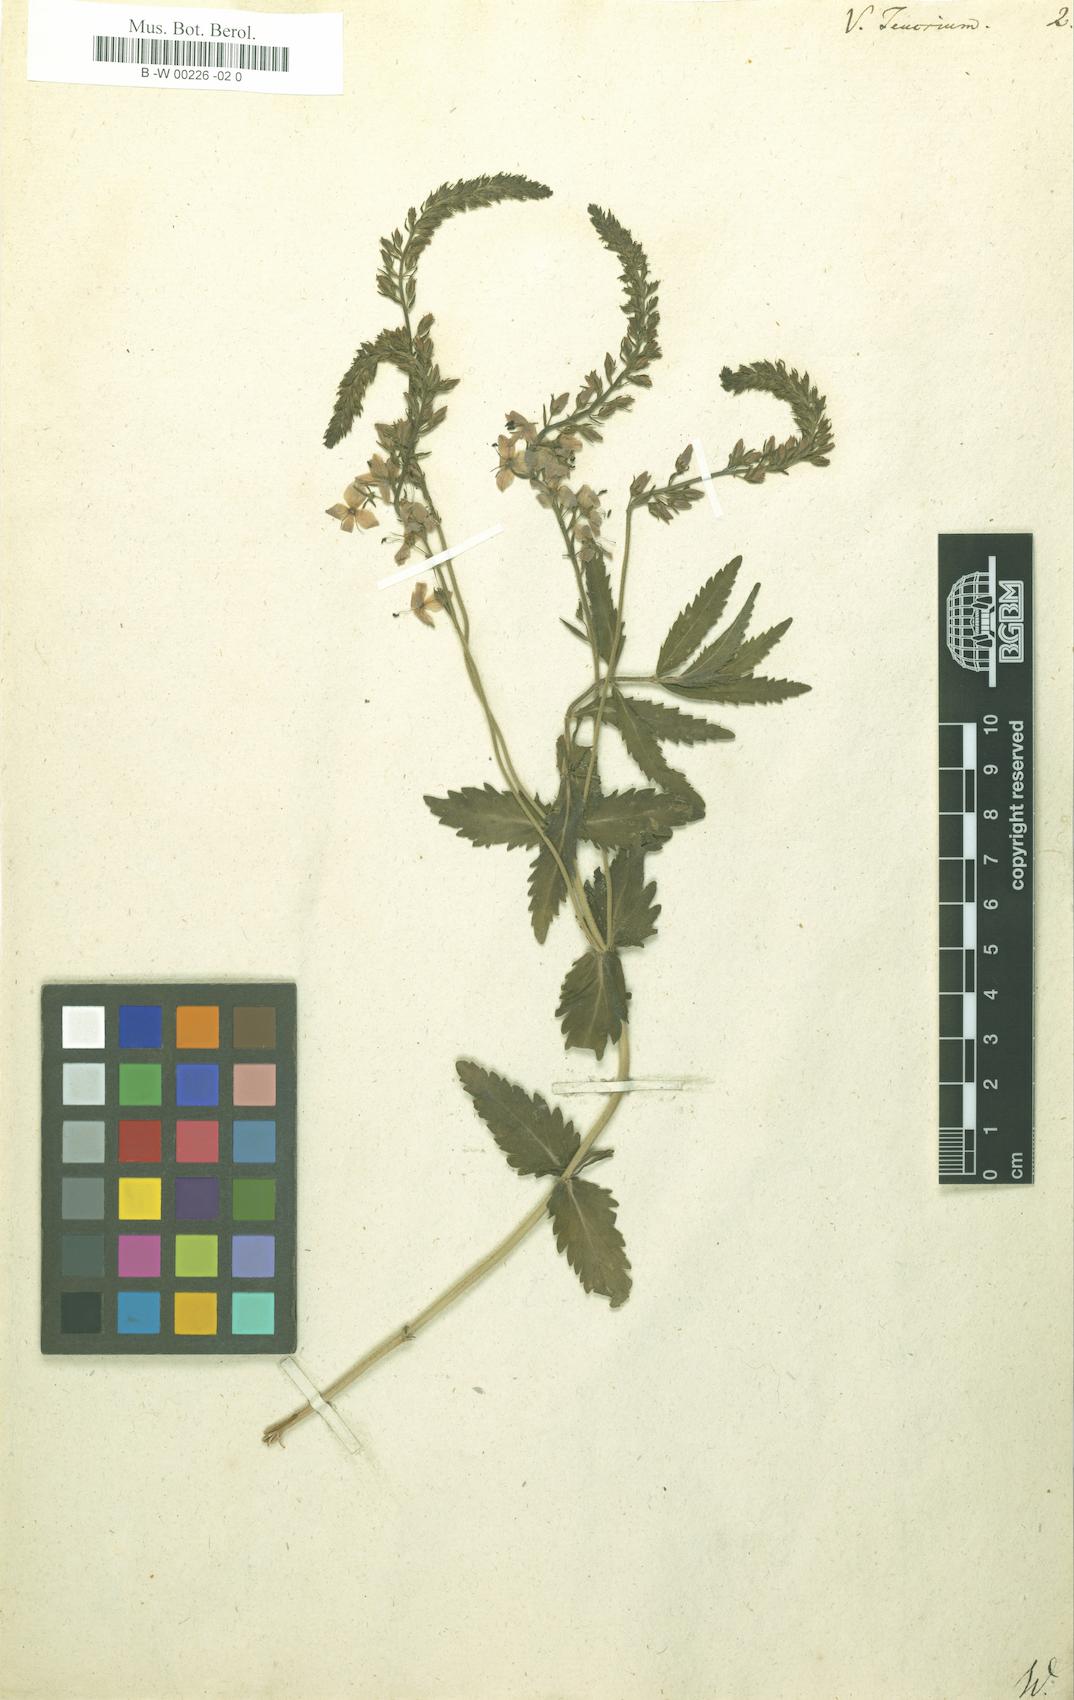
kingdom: Plantae
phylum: Tracheophyta
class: Magnoliopsida
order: Lamiales
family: Plantaginaceae
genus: Veronica
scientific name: Veronica teucrium
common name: Large speedwell
